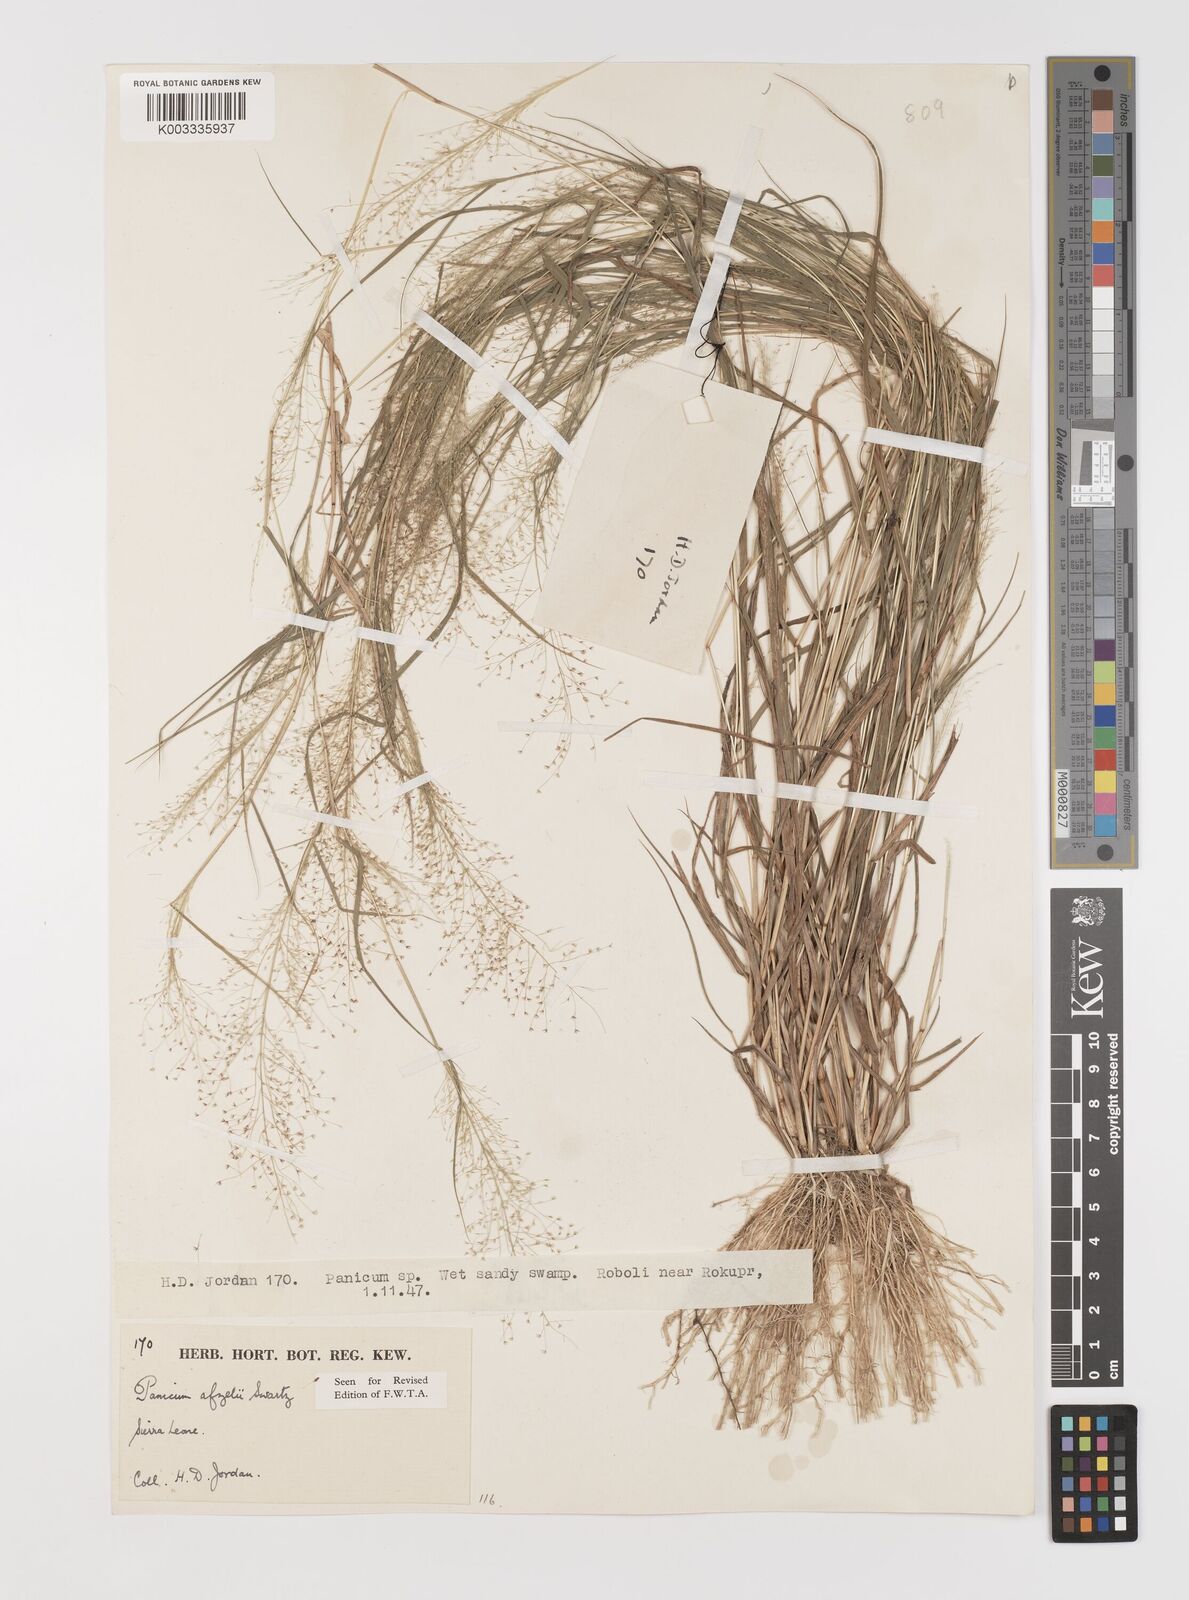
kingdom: Plantae
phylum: Tracheophyta
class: Liliopsida
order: Poales
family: Poaceae
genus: Panicum
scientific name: Panicum afzelii
